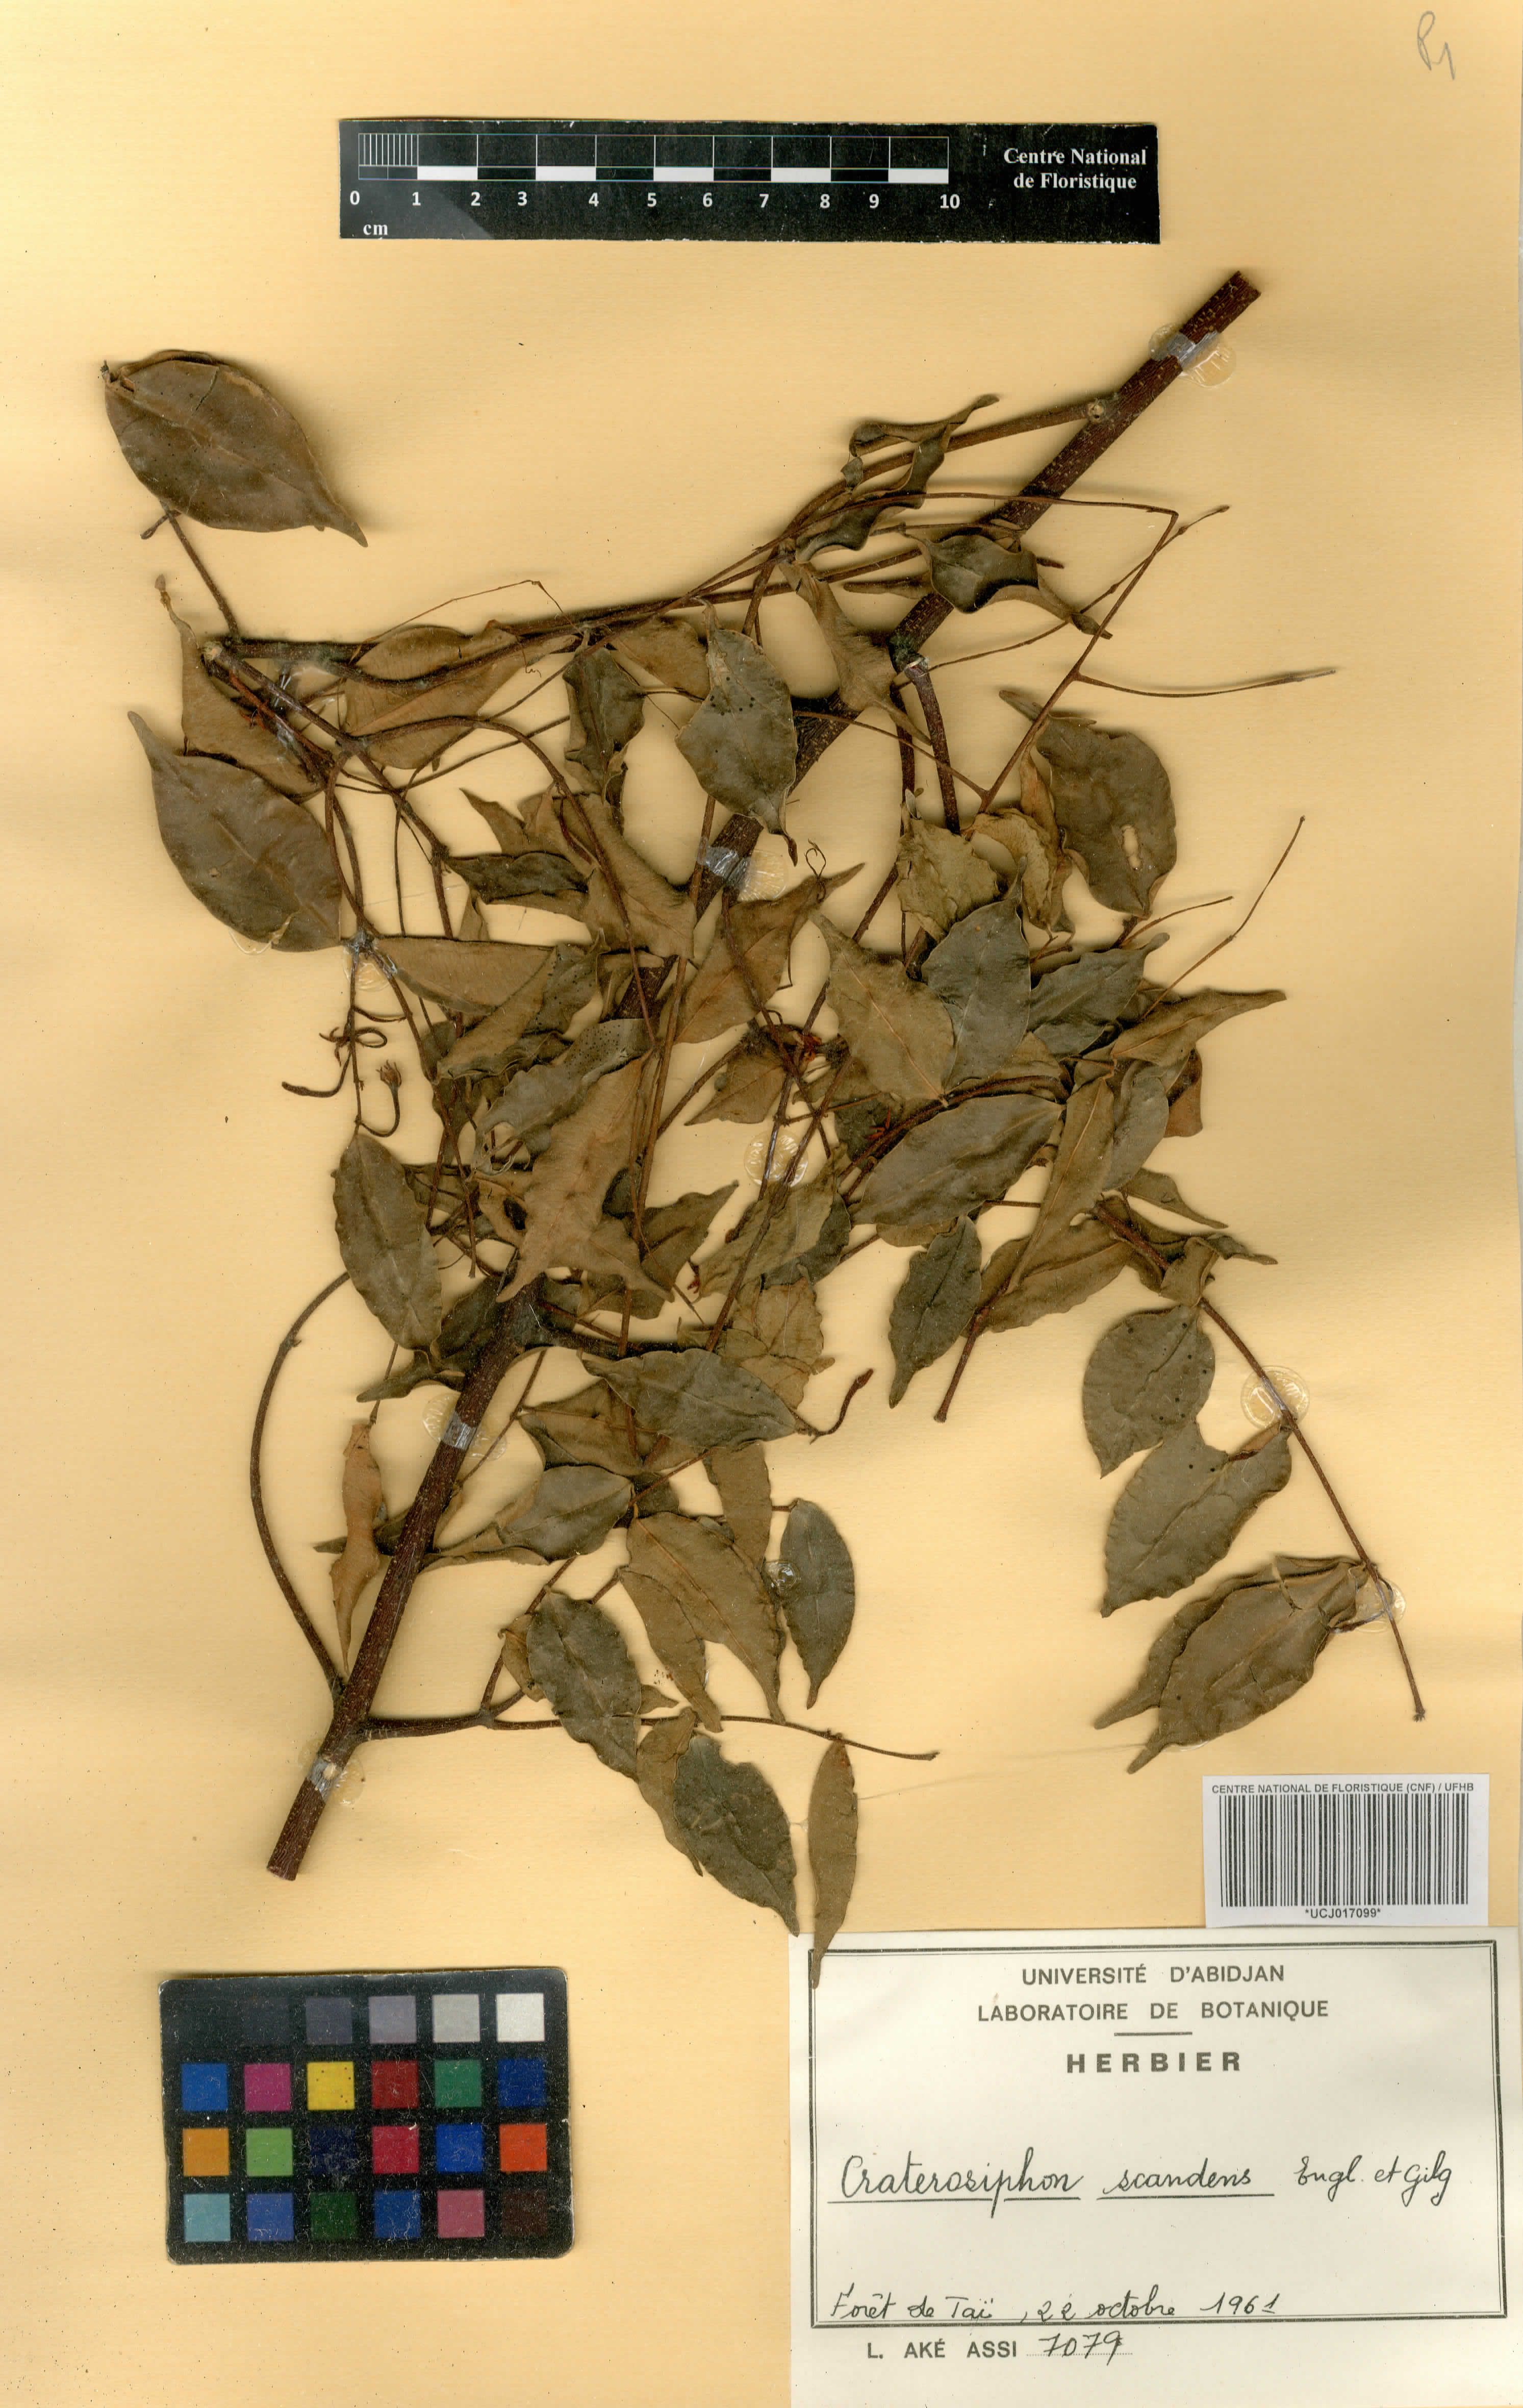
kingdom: Plantae
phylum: Tracheophyta
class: Magnoliopsida
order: Malvales
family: Thymelaeaceae
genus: Craterosiphon
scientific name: Craterosiphon scandens
